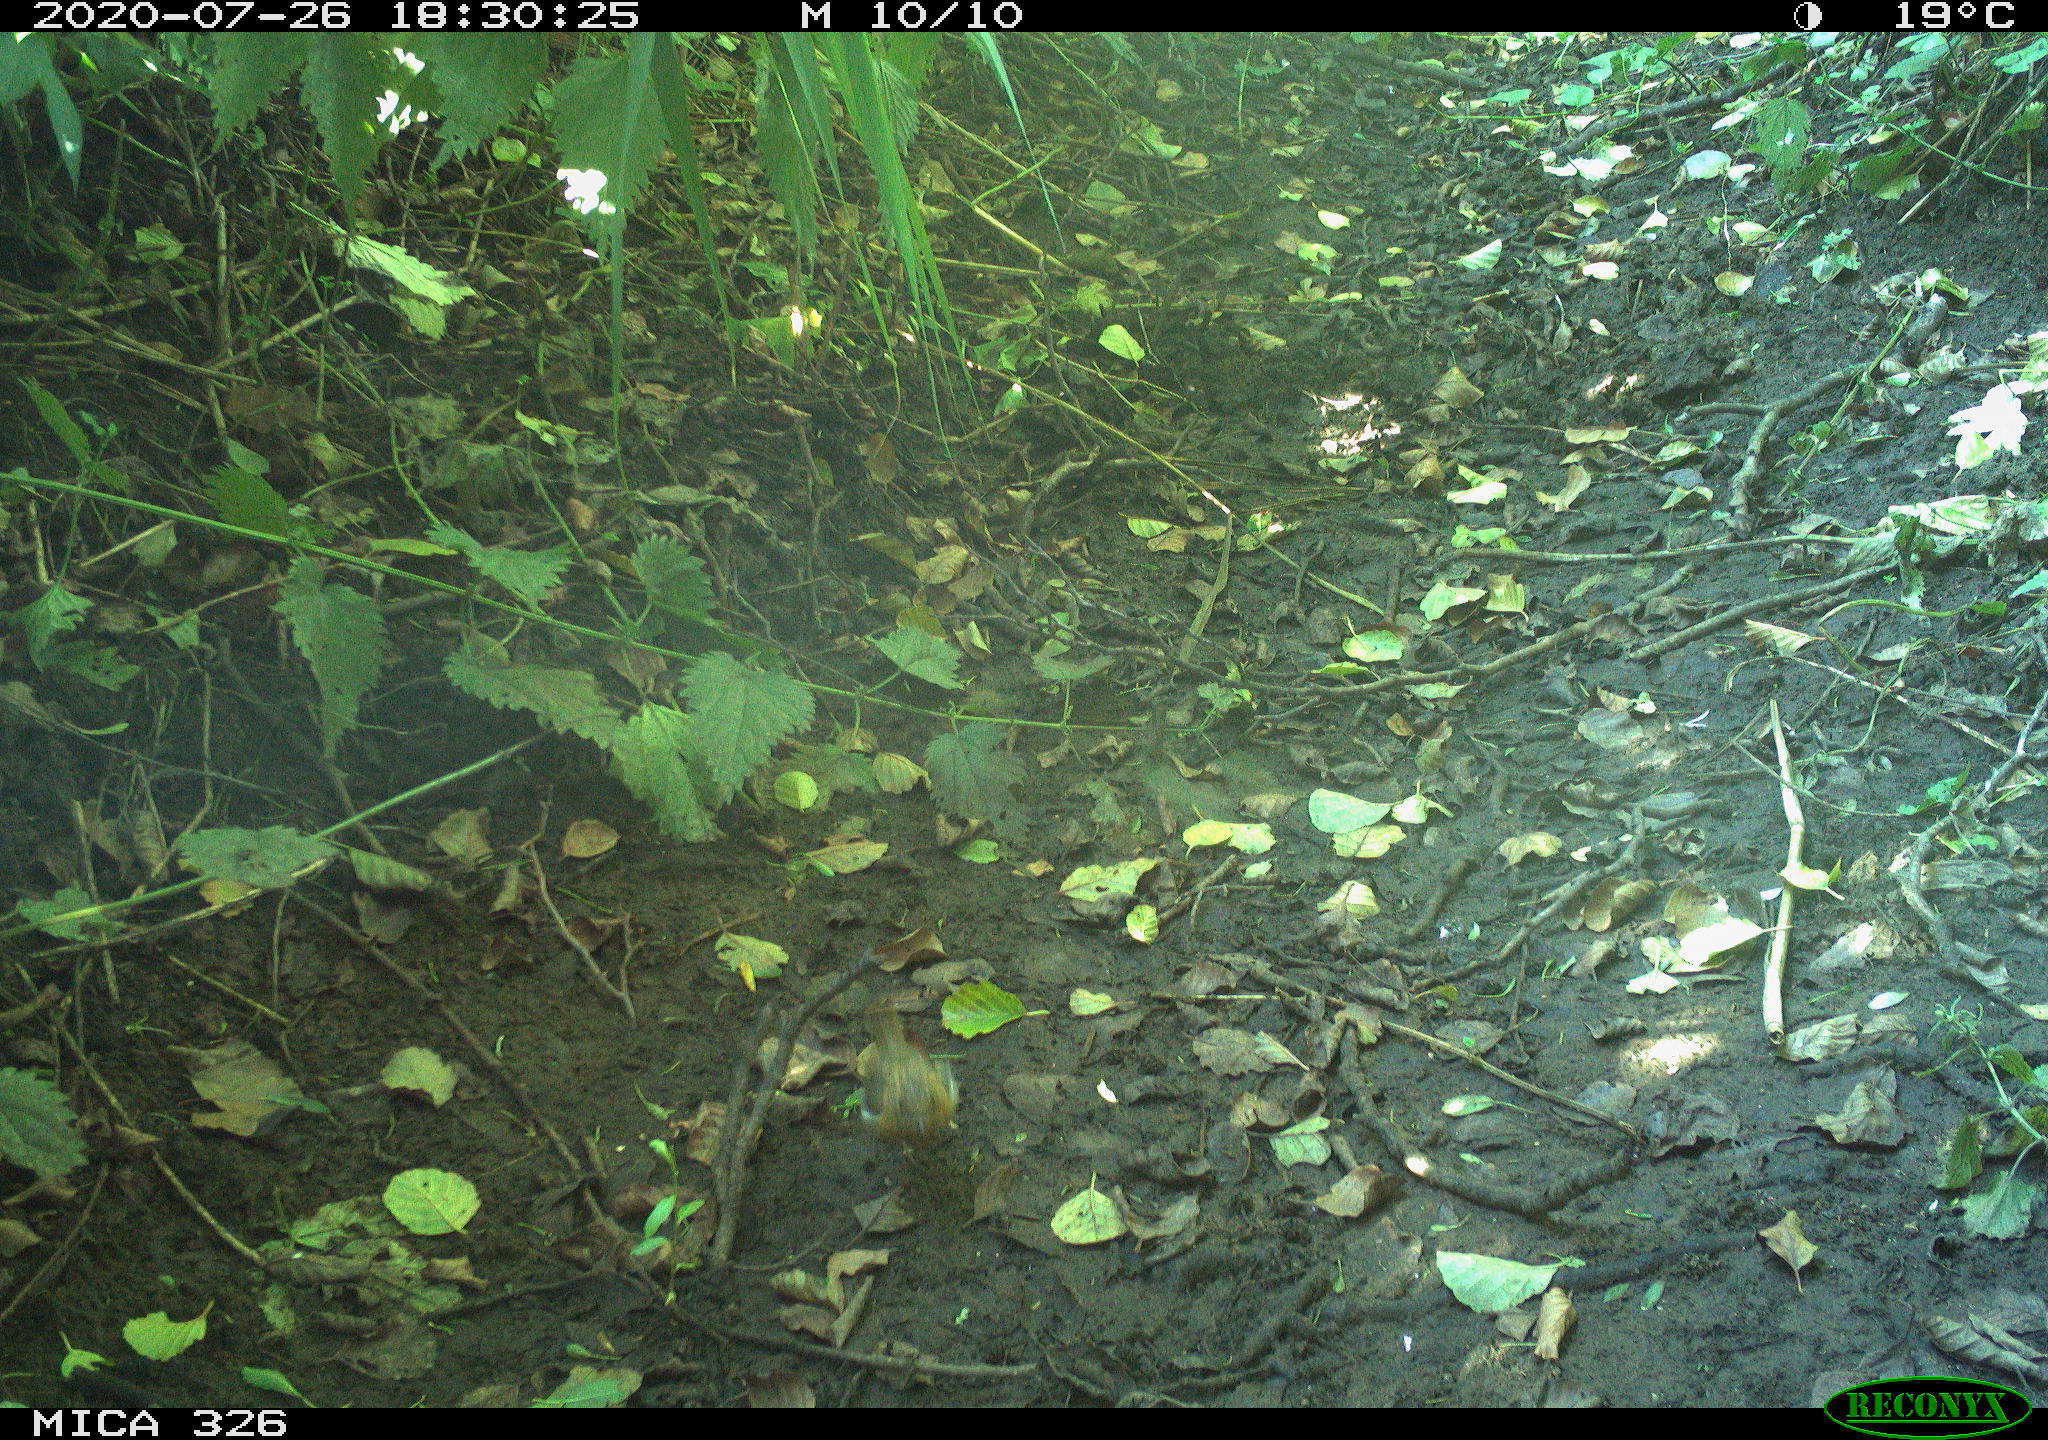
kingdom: Animalia
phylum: Chordata
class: Aves
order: Passeriformes
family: Muscicapidae
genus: Erithacus
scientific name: Erithacus rubecula
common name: European robin
